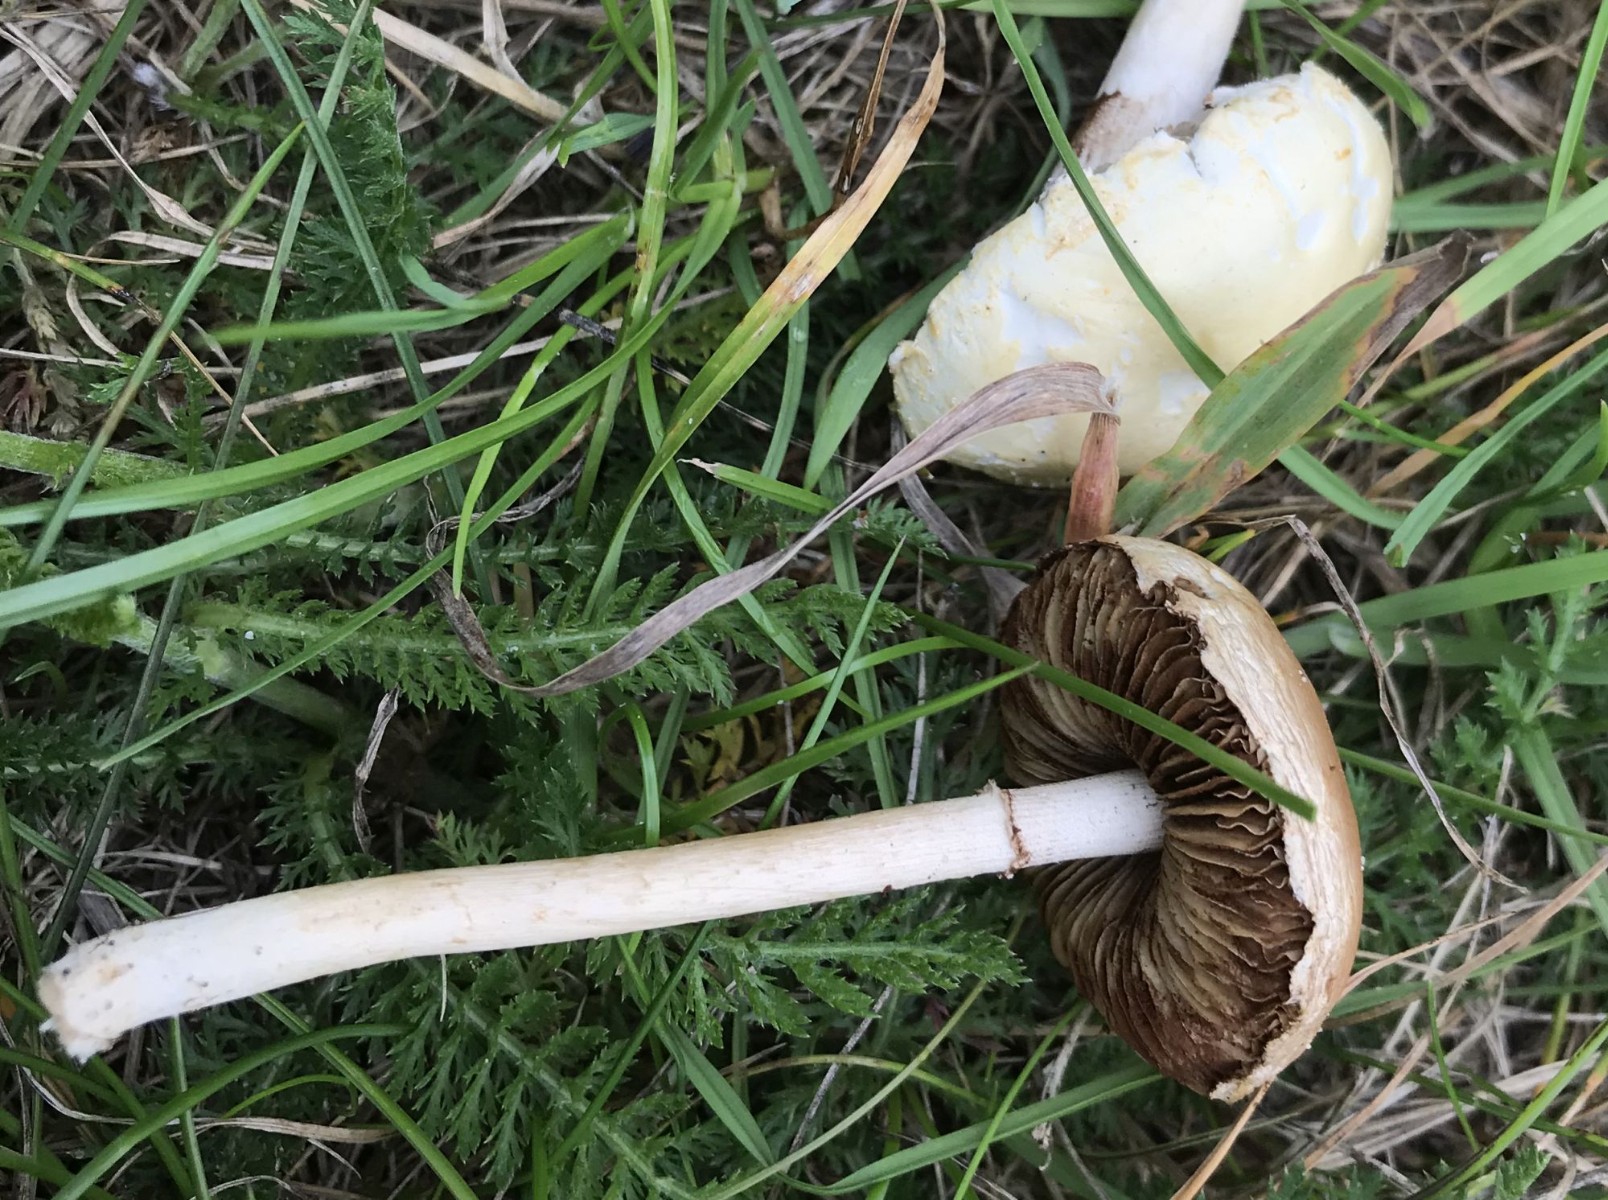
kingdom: Fungi
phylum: Basidiomycota
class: Agaricomycetes
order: Agaricales
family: Strophariaceae
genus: Agrocybe
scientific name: Agrocybe dura
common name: fastkødet agerhat
